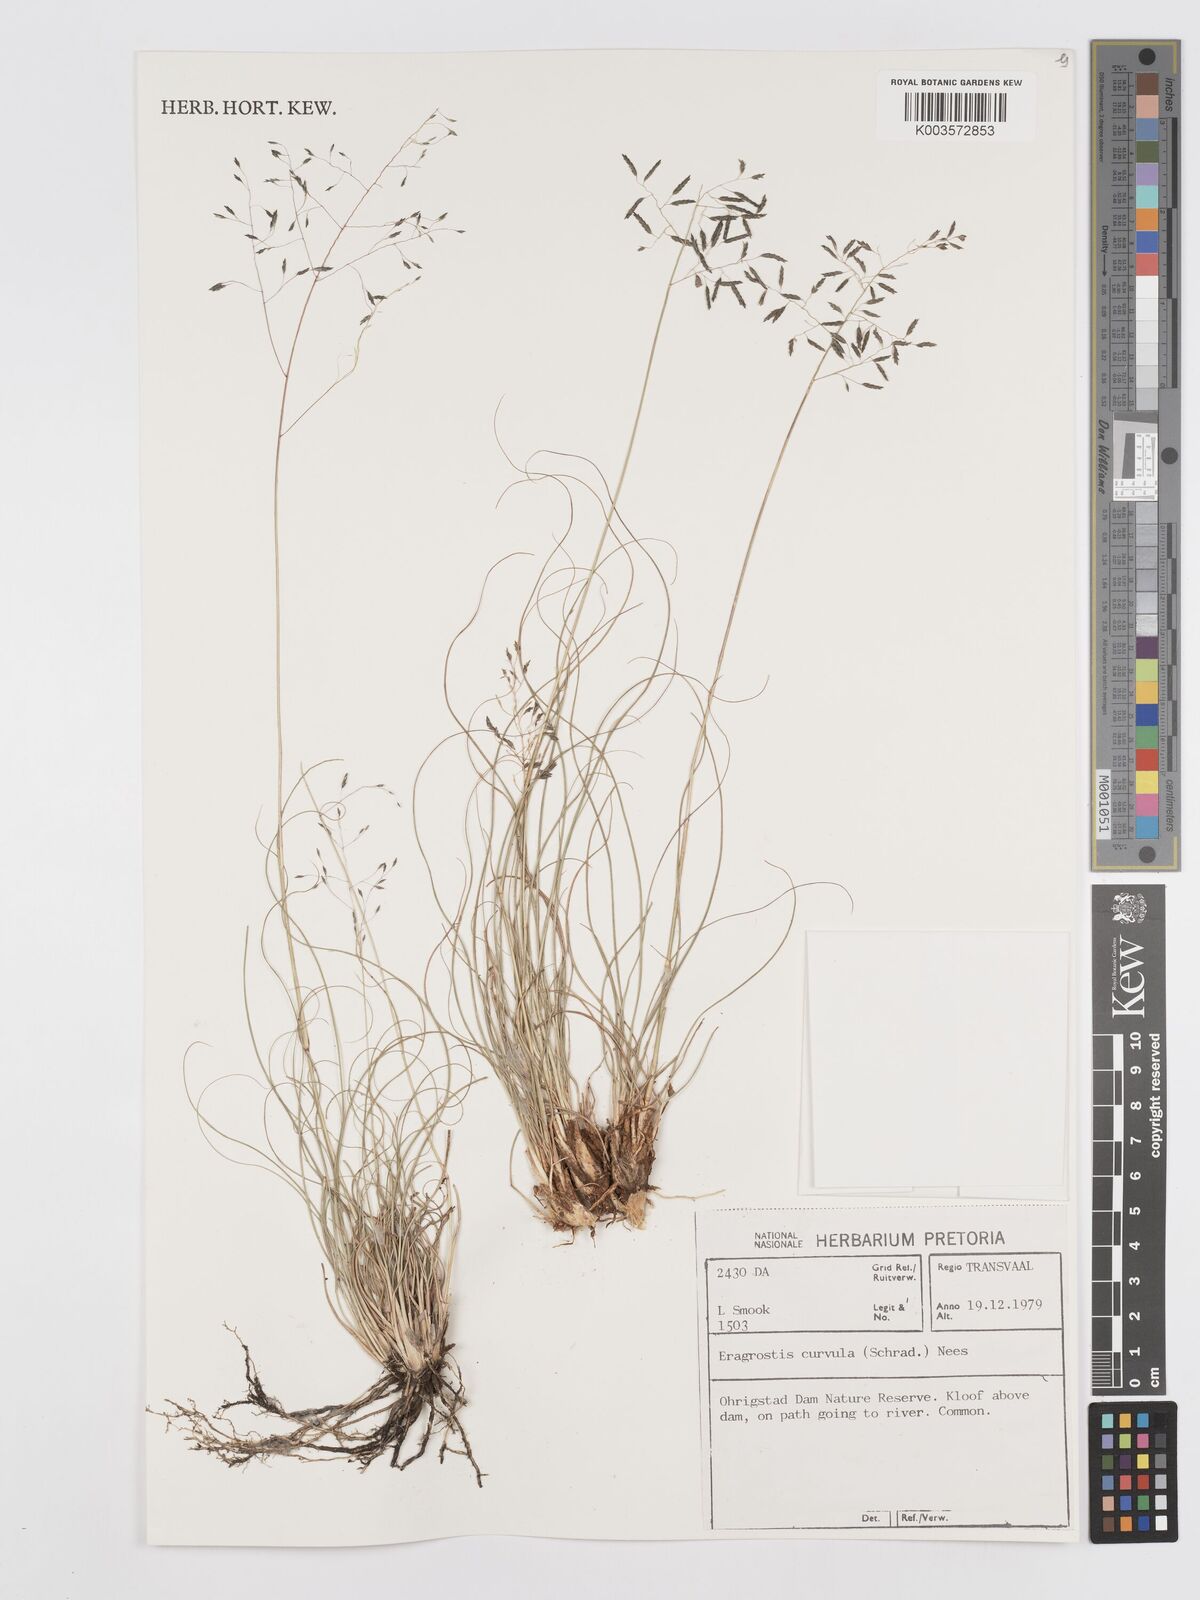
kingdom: Plantae
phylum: Tracheophyta
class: Liliopsida
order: Poales
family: Poaceae
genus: Eragrostis
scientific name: Eragrostis curvula
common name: African love-grass
